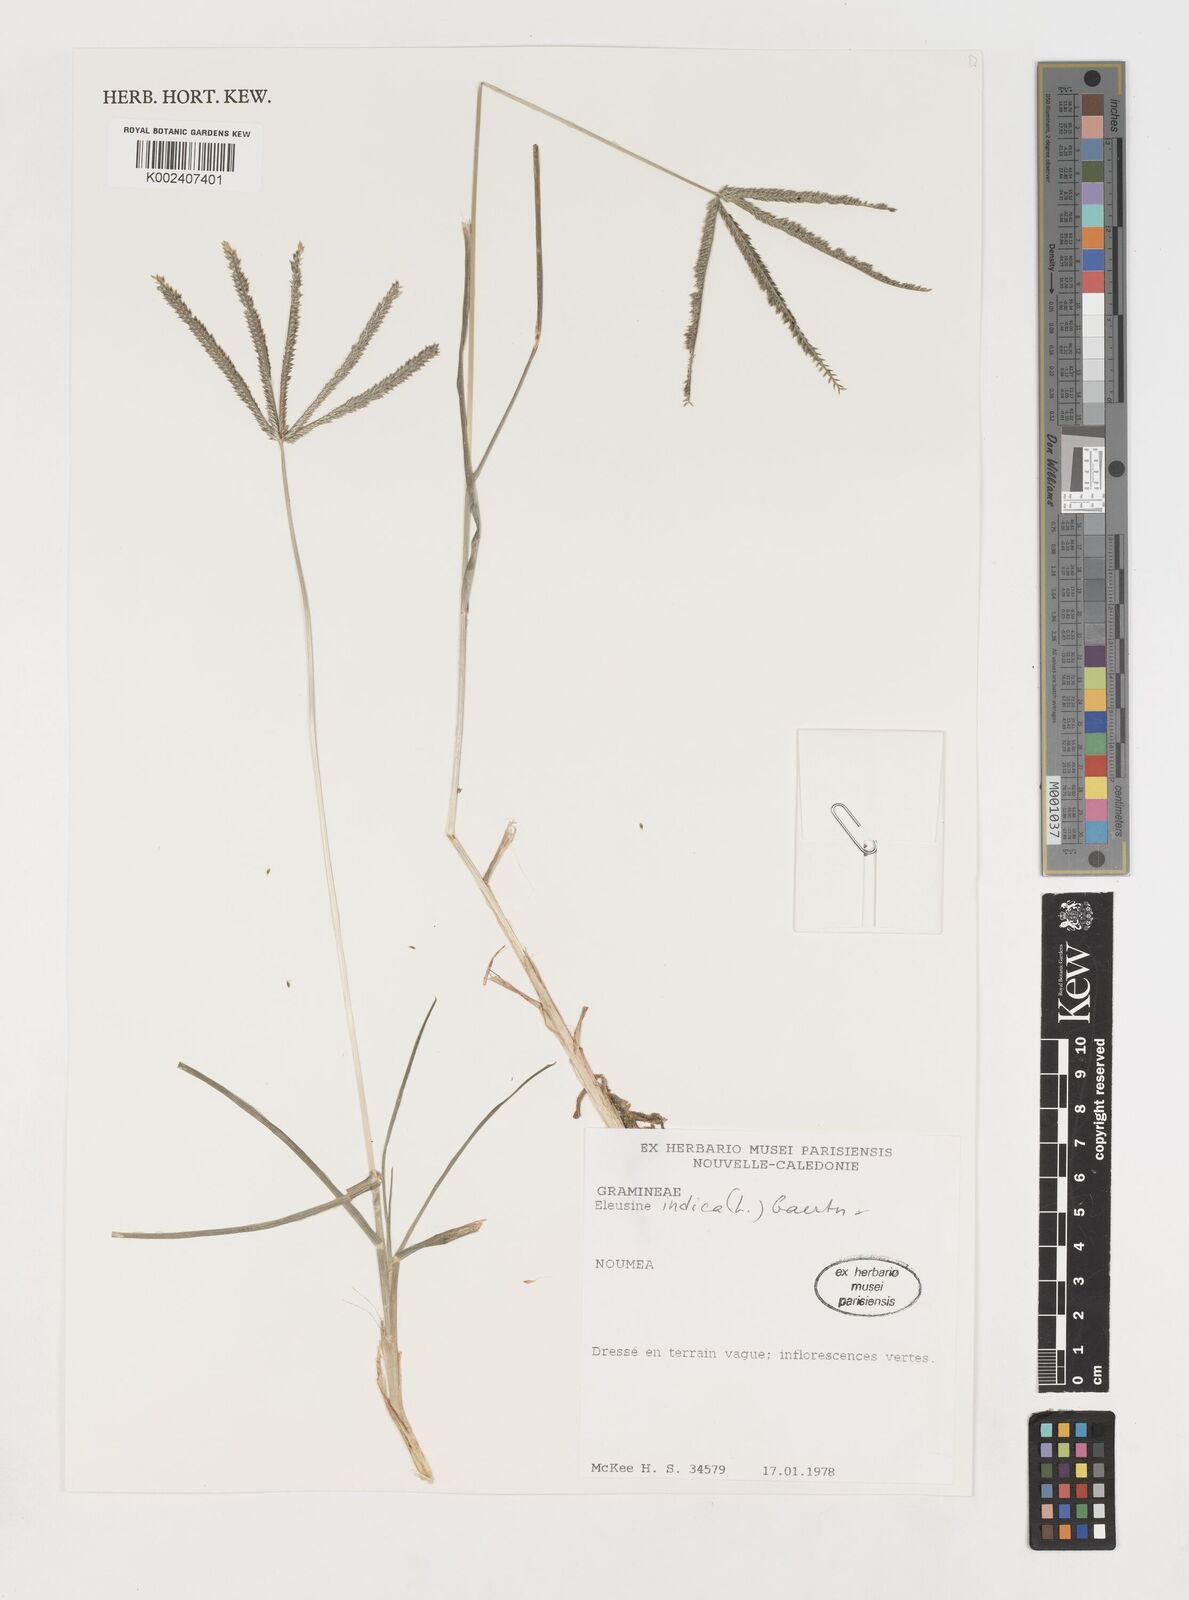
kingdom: Plantae
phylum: Tracheophyta
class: Liliopsida
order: Poales
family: Poaceae
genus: Eleusine
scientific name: Eleusine indica
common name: Yard-grass
